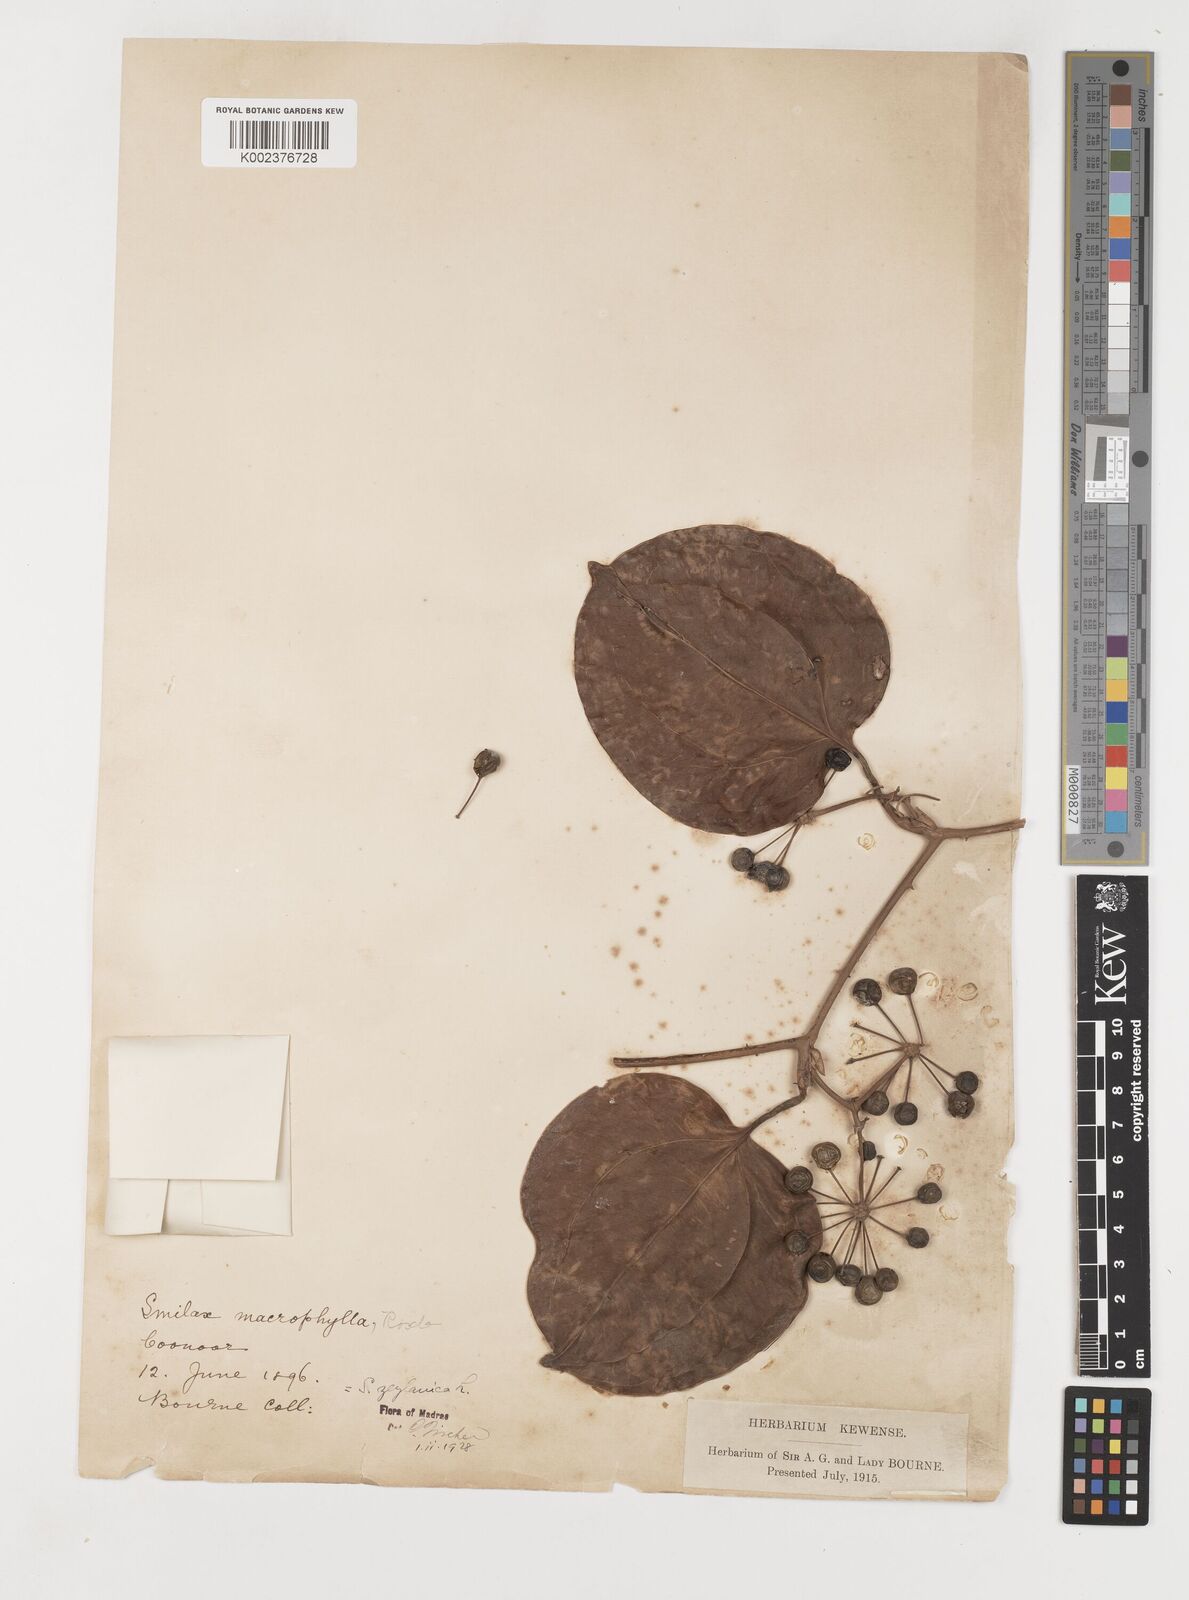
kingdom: Plantae
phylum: Tracheophyta
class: Liliopsida
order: Liliales
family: Smilacaceae
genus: Smilax
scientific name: Smilax zeylanica
